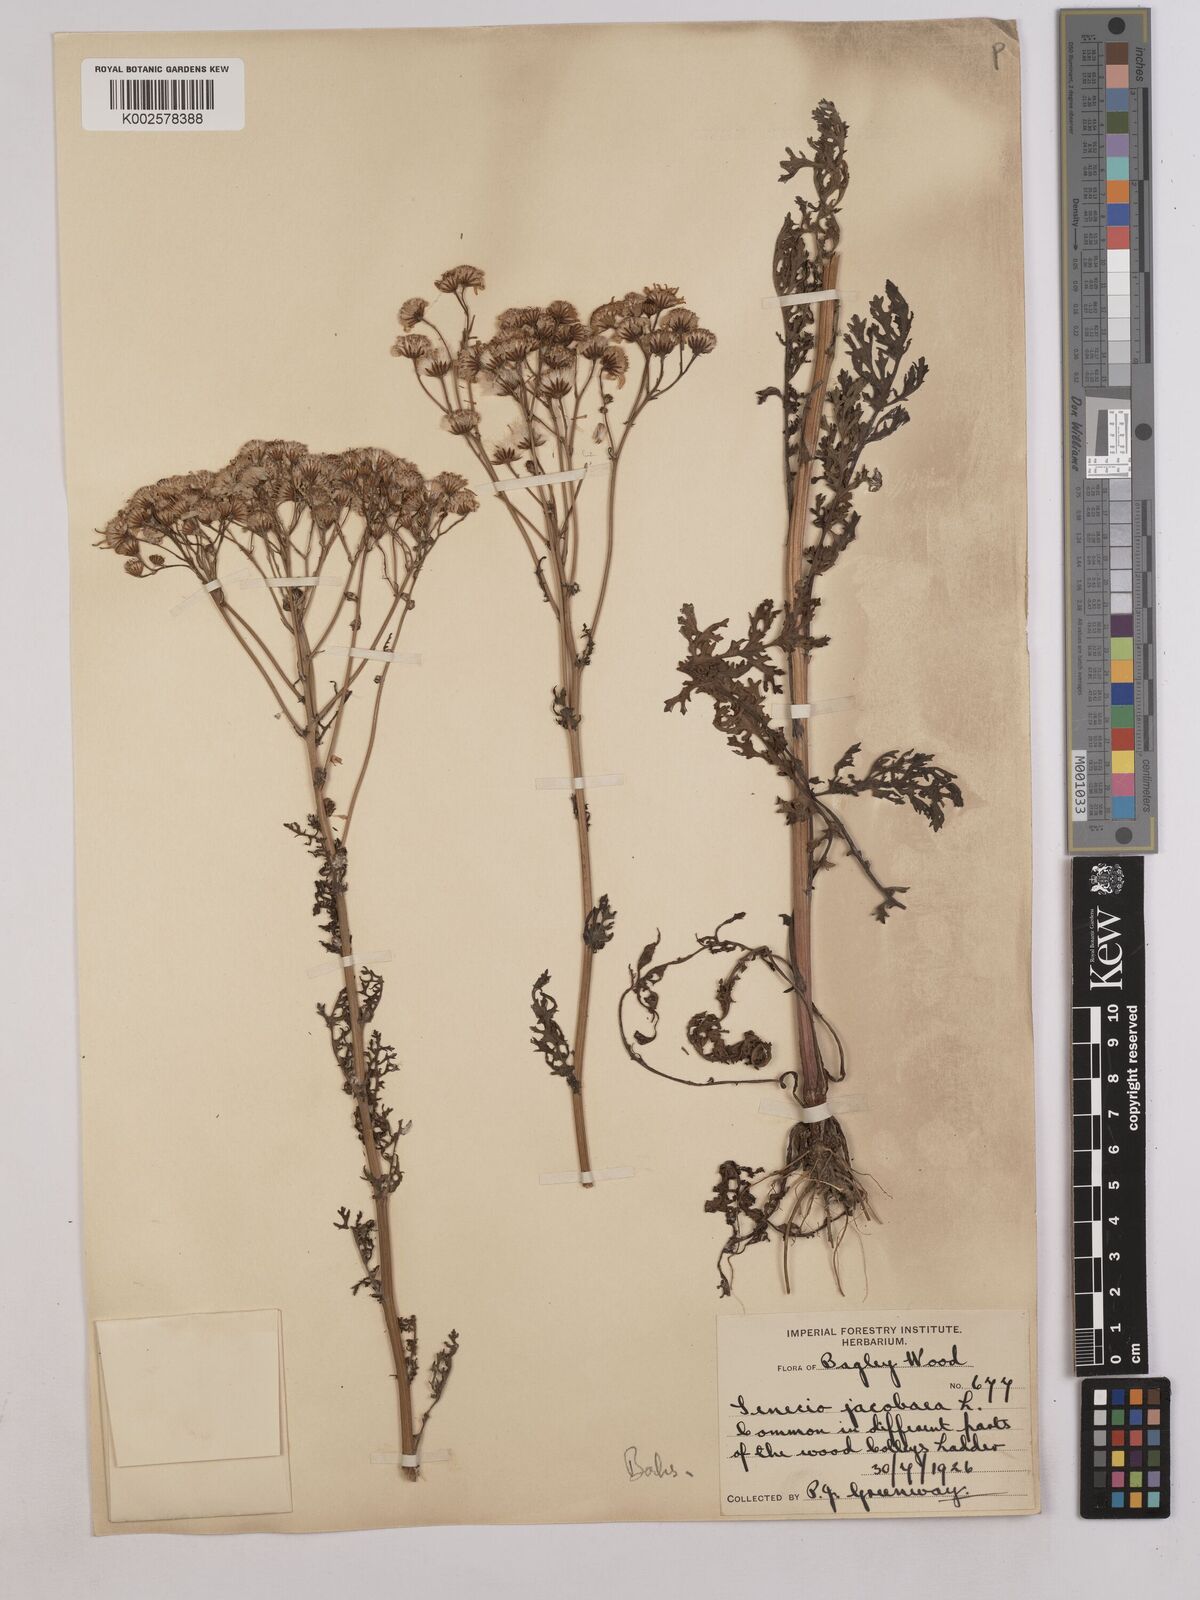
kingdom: Plantae
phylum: Tracheophyta
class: Magnoliopsida
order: Asterales
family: Asteraceae
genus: Jacobaea
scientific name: Jacobaea vulgaris
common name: Stinking willie
